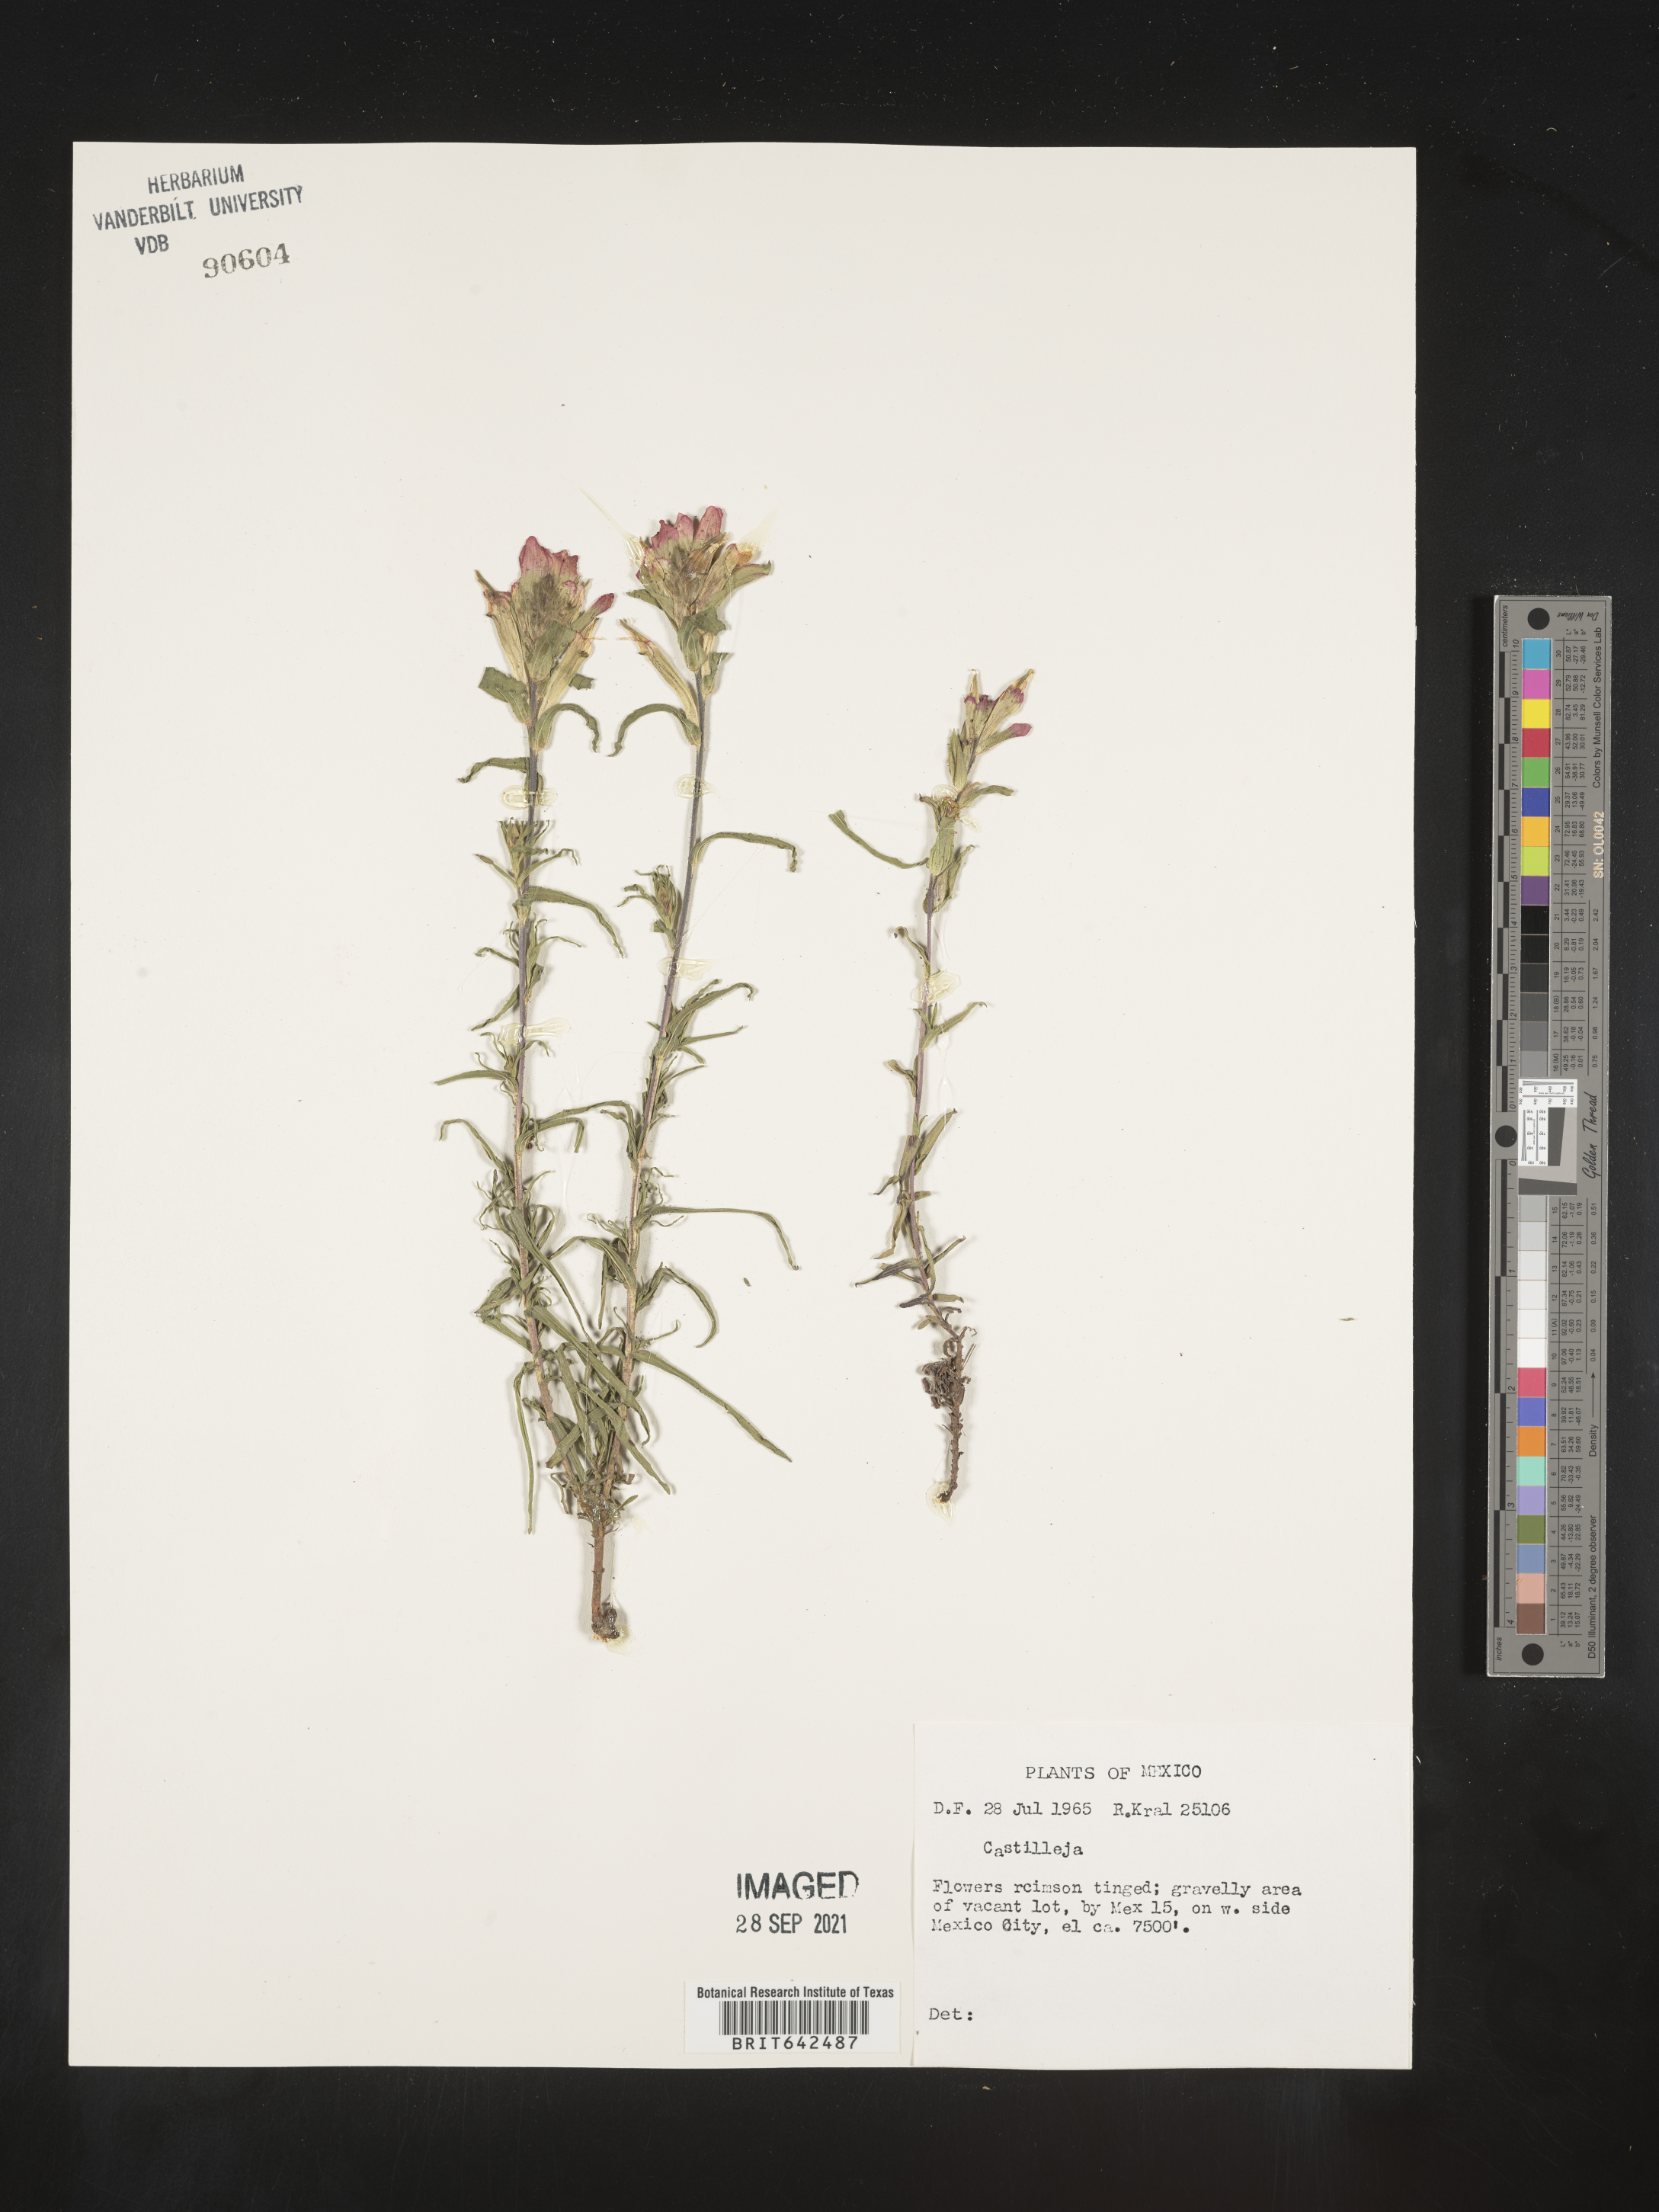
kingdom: Plantae
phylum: Tracheophyta
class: Magnoliopsida
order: Lamiales
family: Orobanchaceae
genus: Castilleja
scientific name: Castilleja
